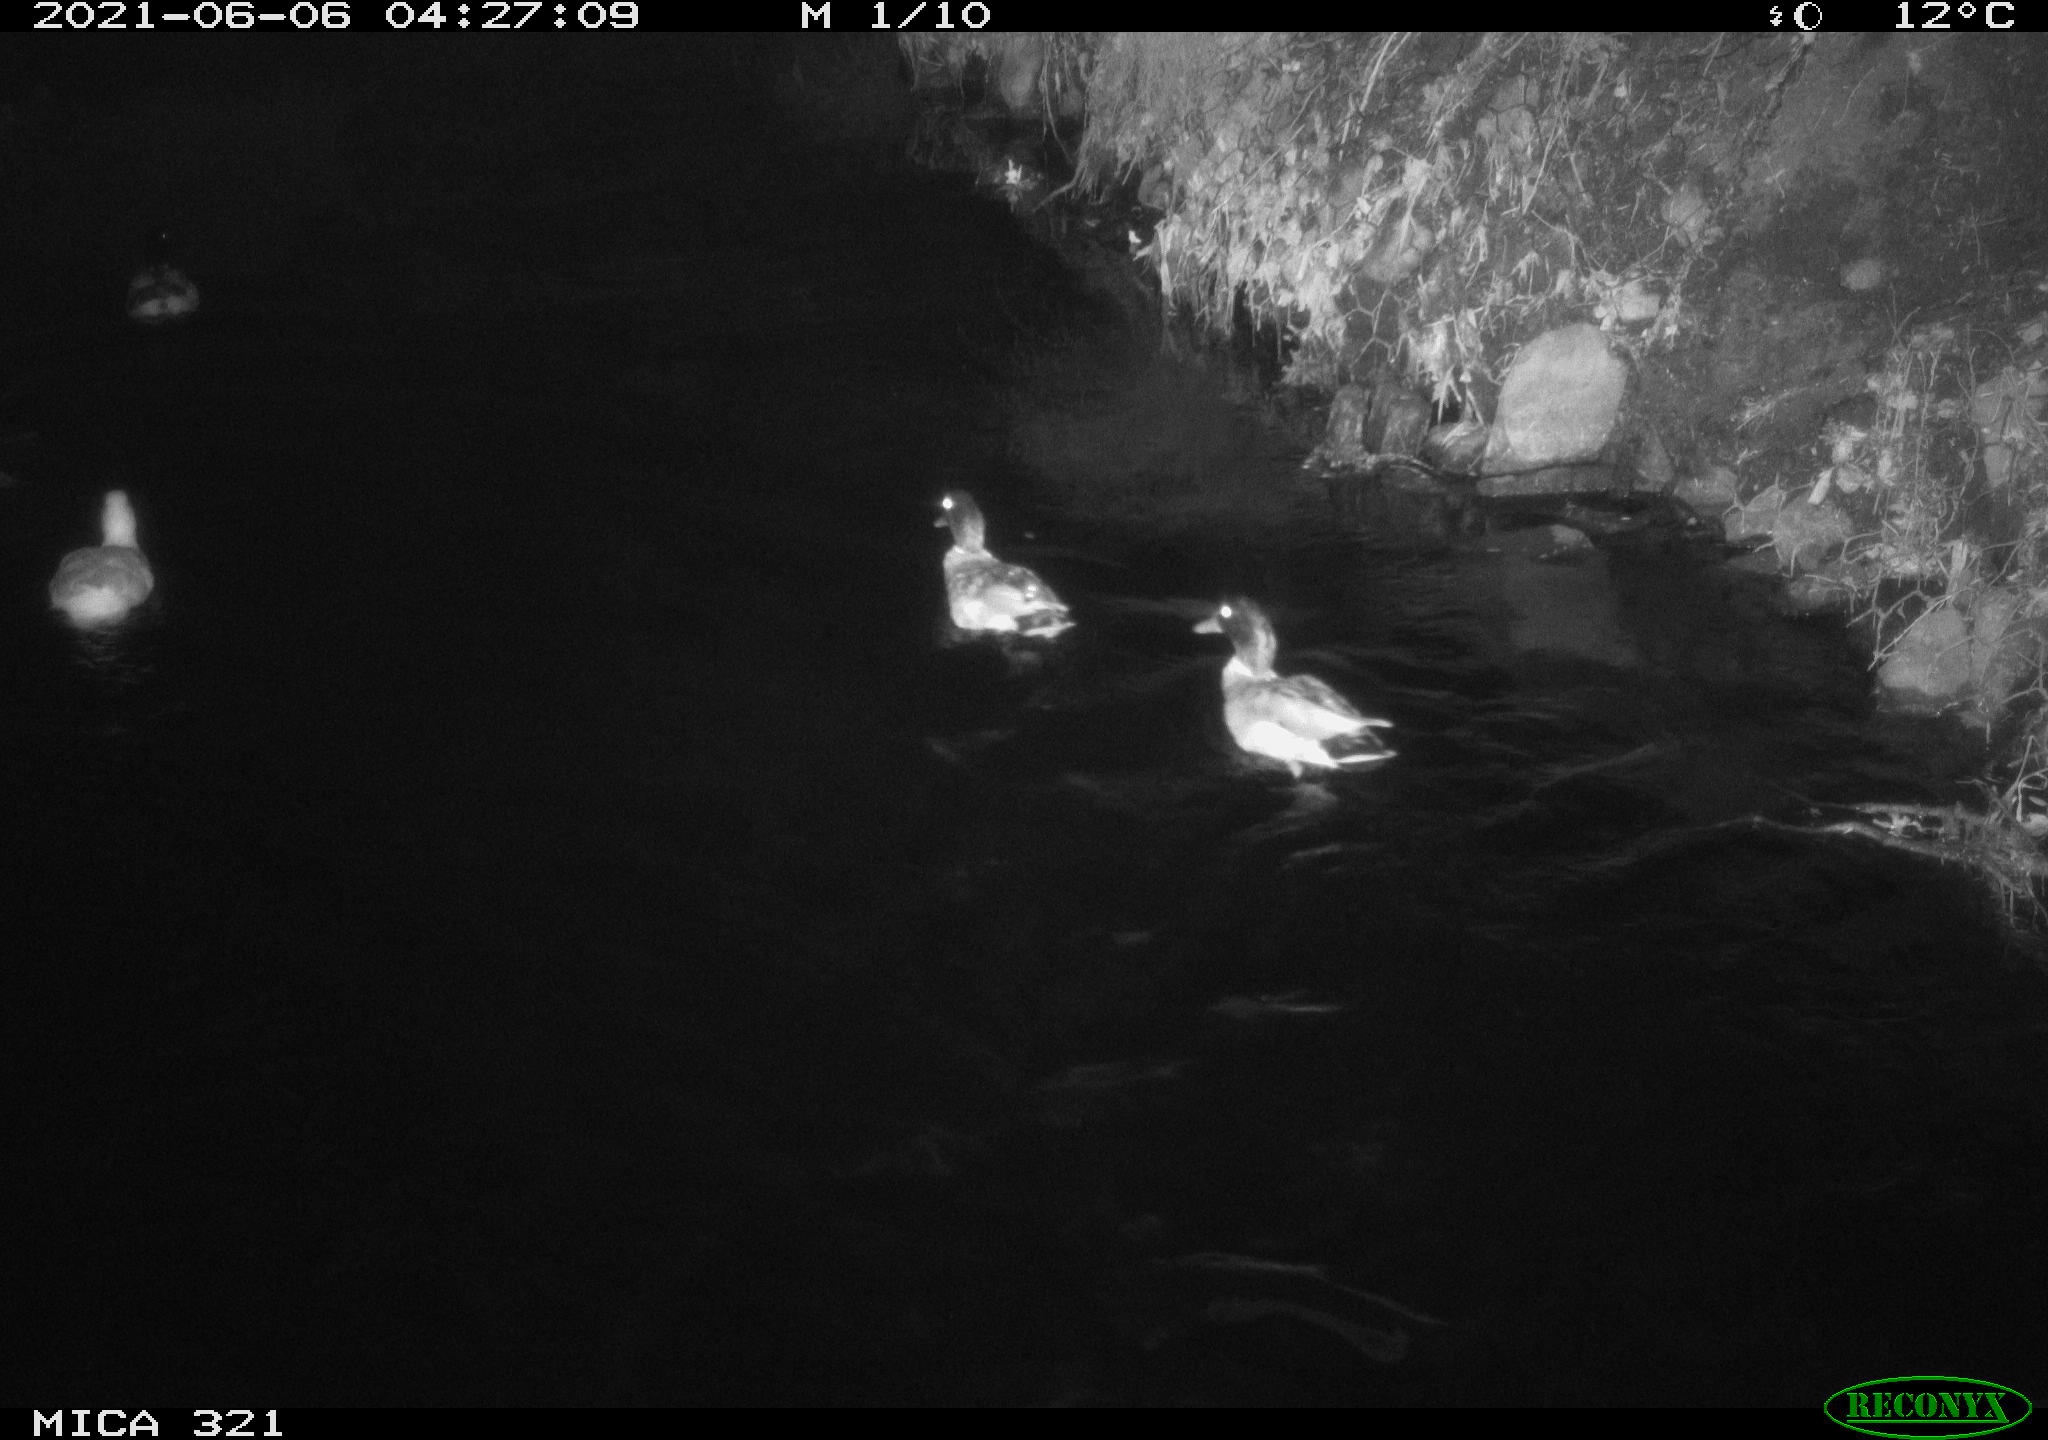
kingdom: Animalia
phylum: Chordata
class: Aves
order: Anseriformes
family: Anatidae
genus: Anas
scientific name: Anas platyrhynchos
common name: Mallard
